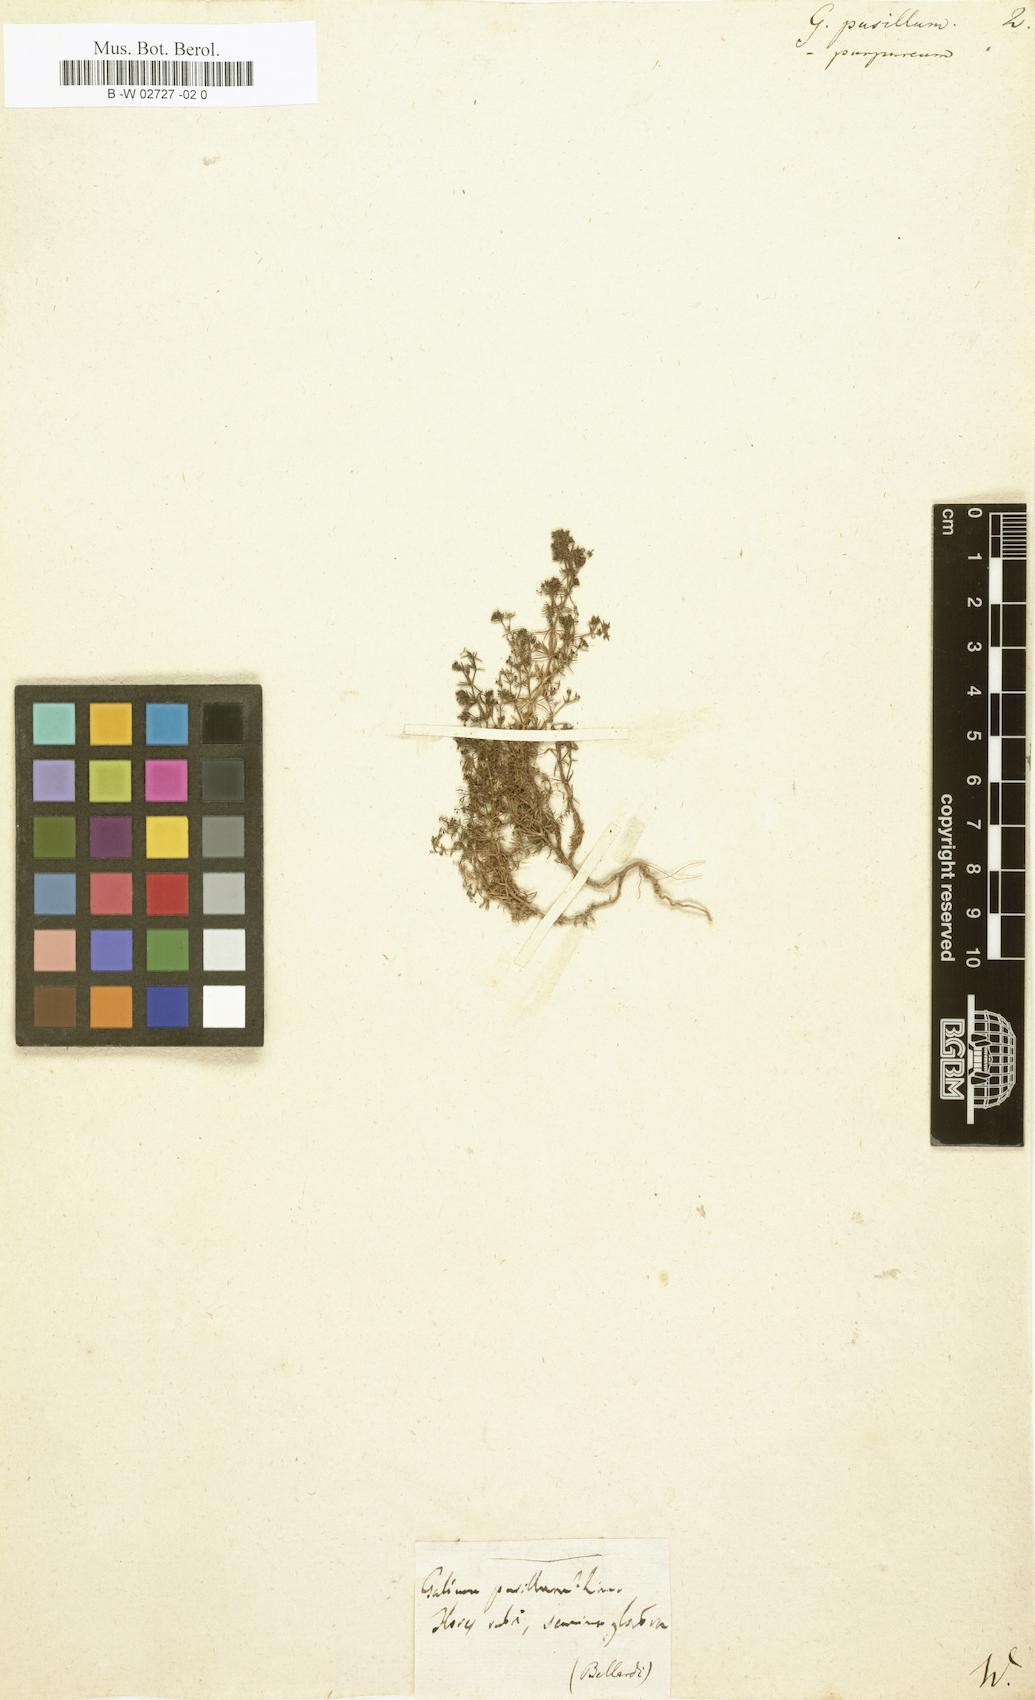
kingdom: Plantae
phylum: Tracheophyta
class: Magnoliopsida
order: Gentianales
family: Rubiaceae
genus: Galium
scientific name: Galium pusillum
